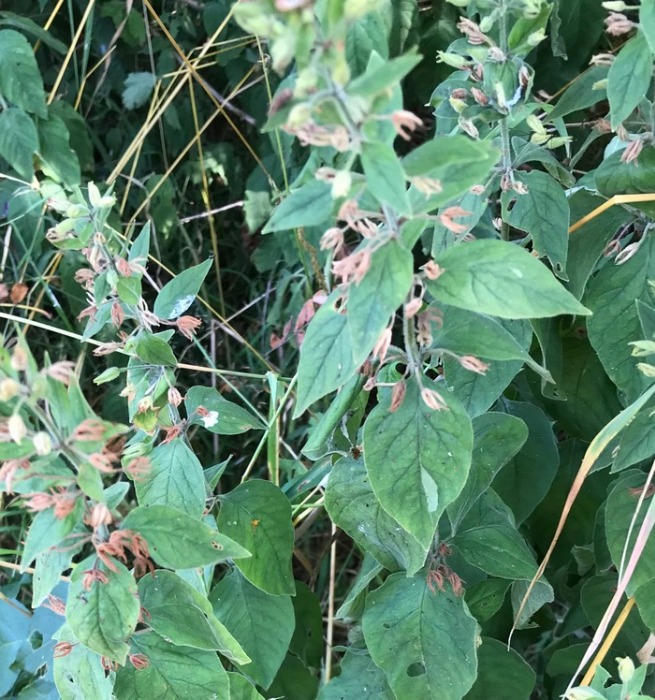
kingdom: Plantae
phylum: Tracheophyta
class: Magnoliopsida
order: Ericales
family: Primulaceae
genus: Lysimachia
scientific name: Lysimachia punctata
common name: Prikbladet fredløs
